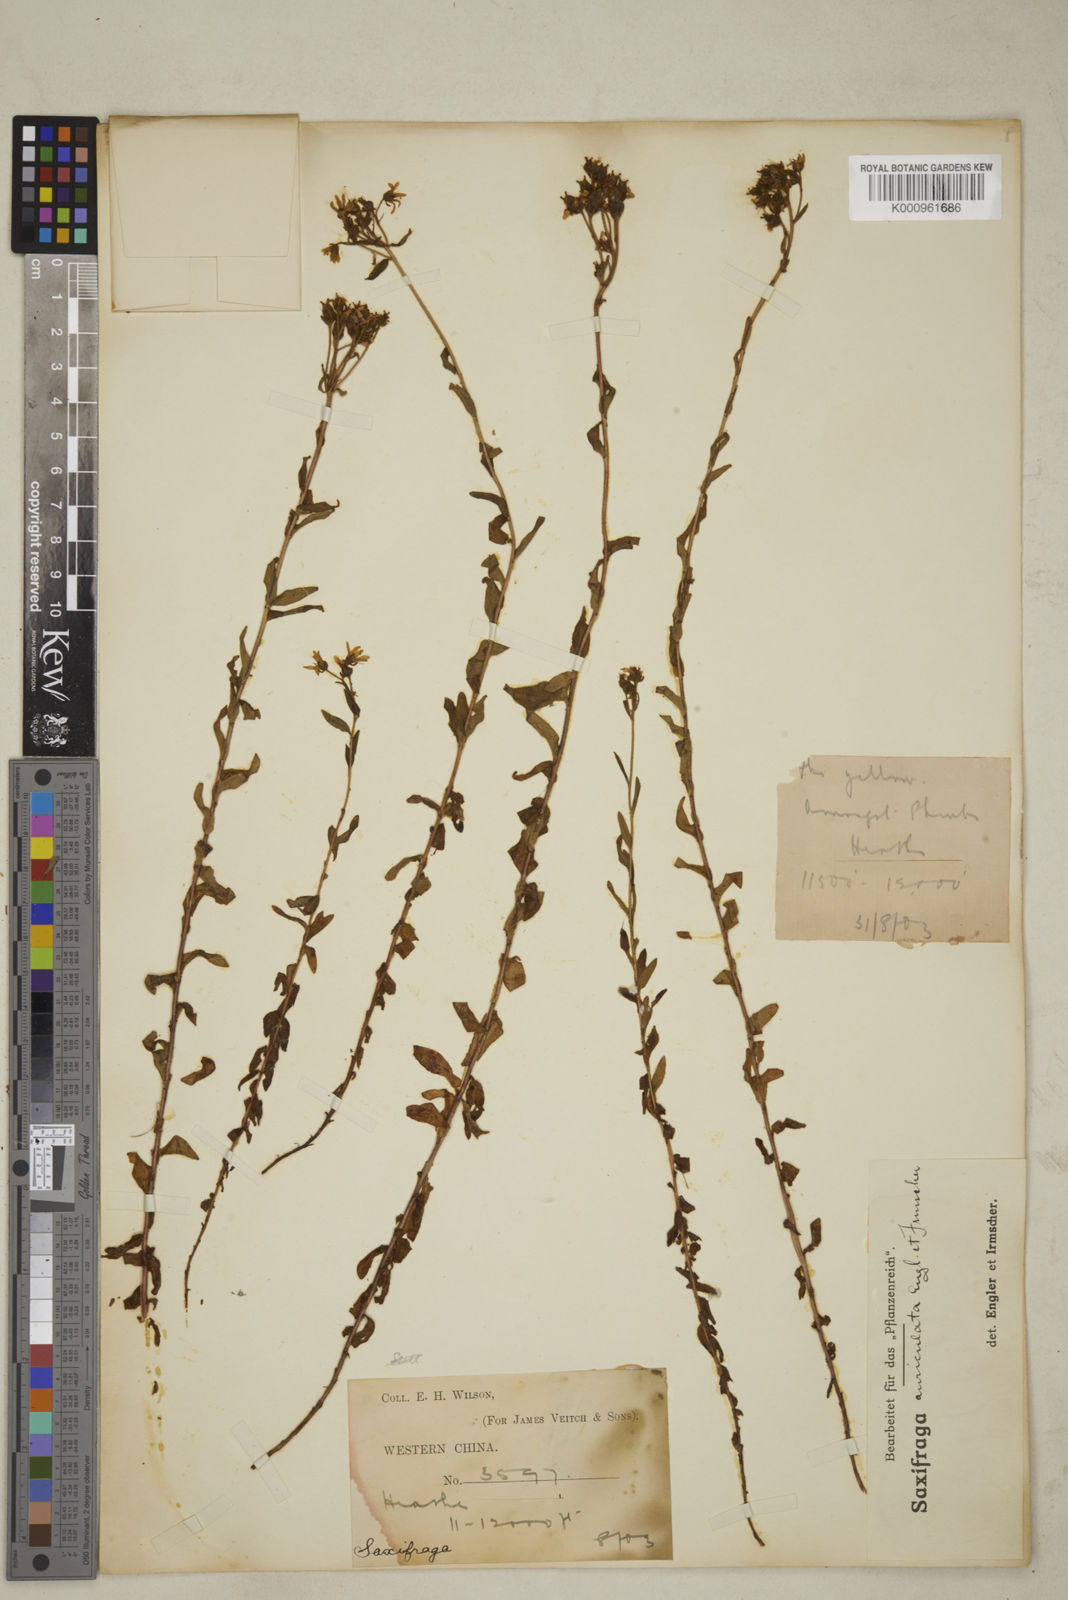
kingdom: Plantae
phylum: Tracheophyta
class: Magnoliopsida
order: Saxifragales
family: Saxifragaceae
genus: Saxifraga
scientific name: Saxifraga auriculata
